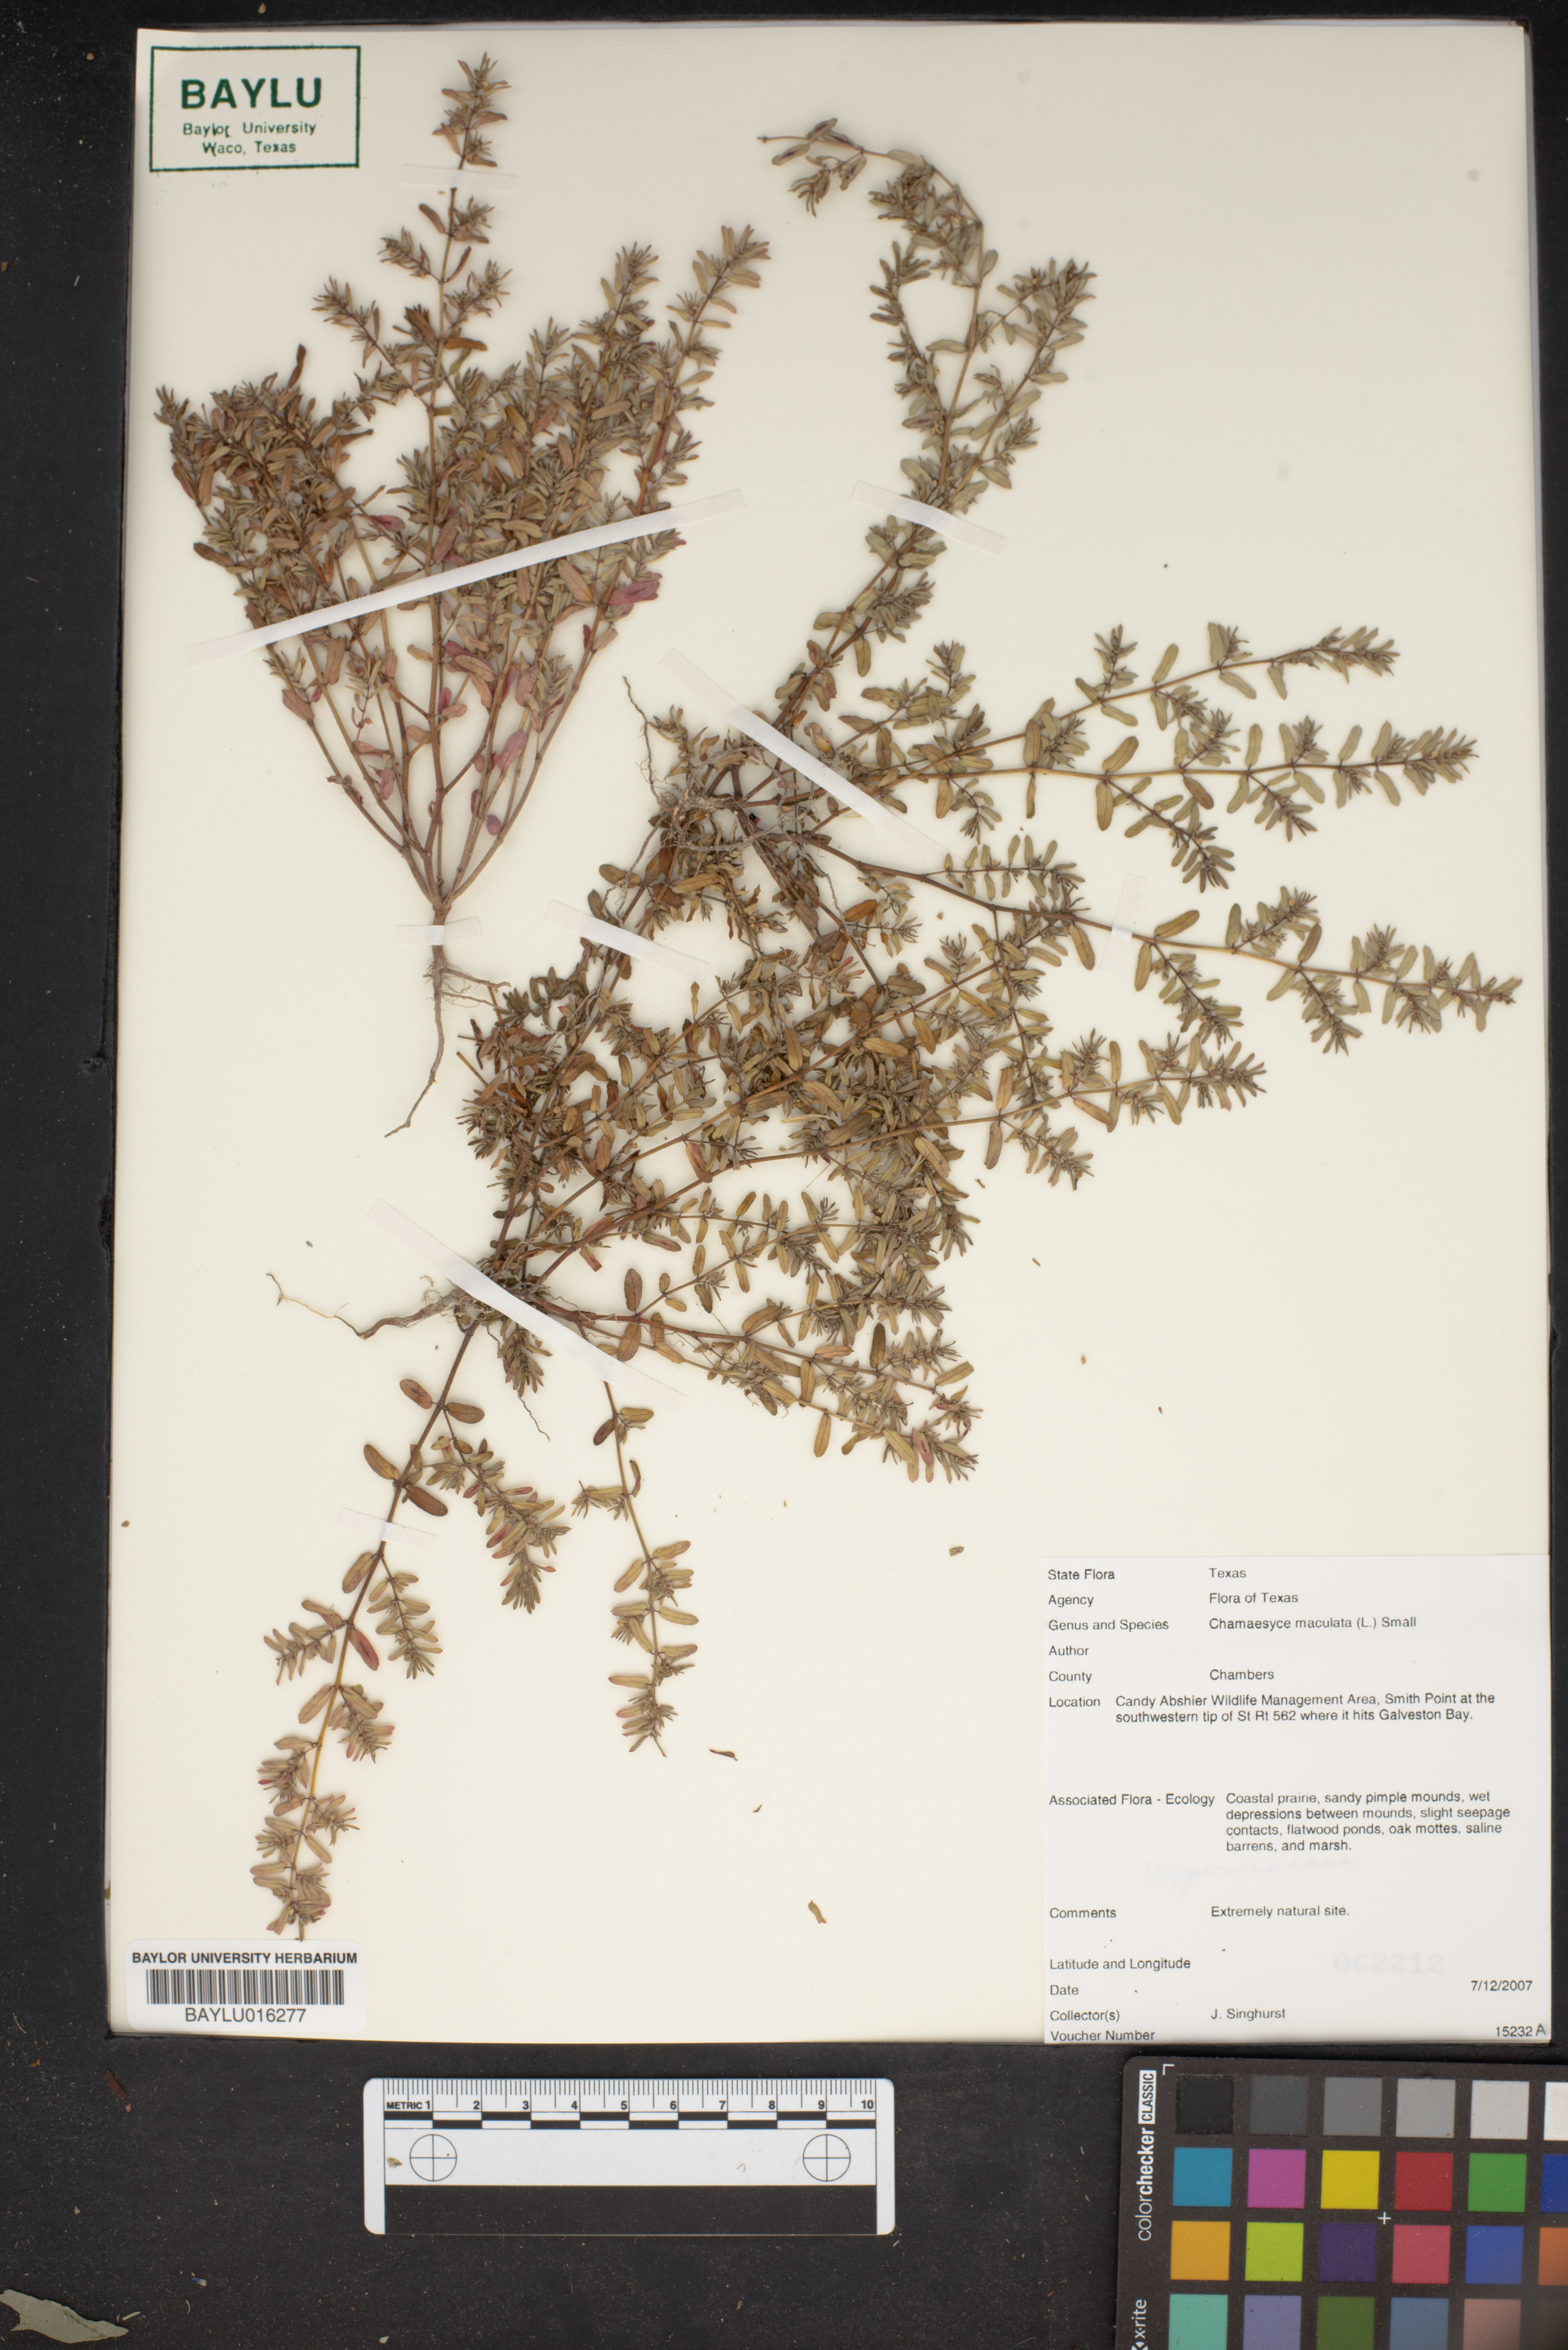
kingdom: Plantae
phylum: Tracheophyta
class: Magnoliopsida
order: Malpighiales
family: Euphorbiaceae
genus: Euphorbia
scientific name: Euphorbia maculata
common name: Spotted spurge
